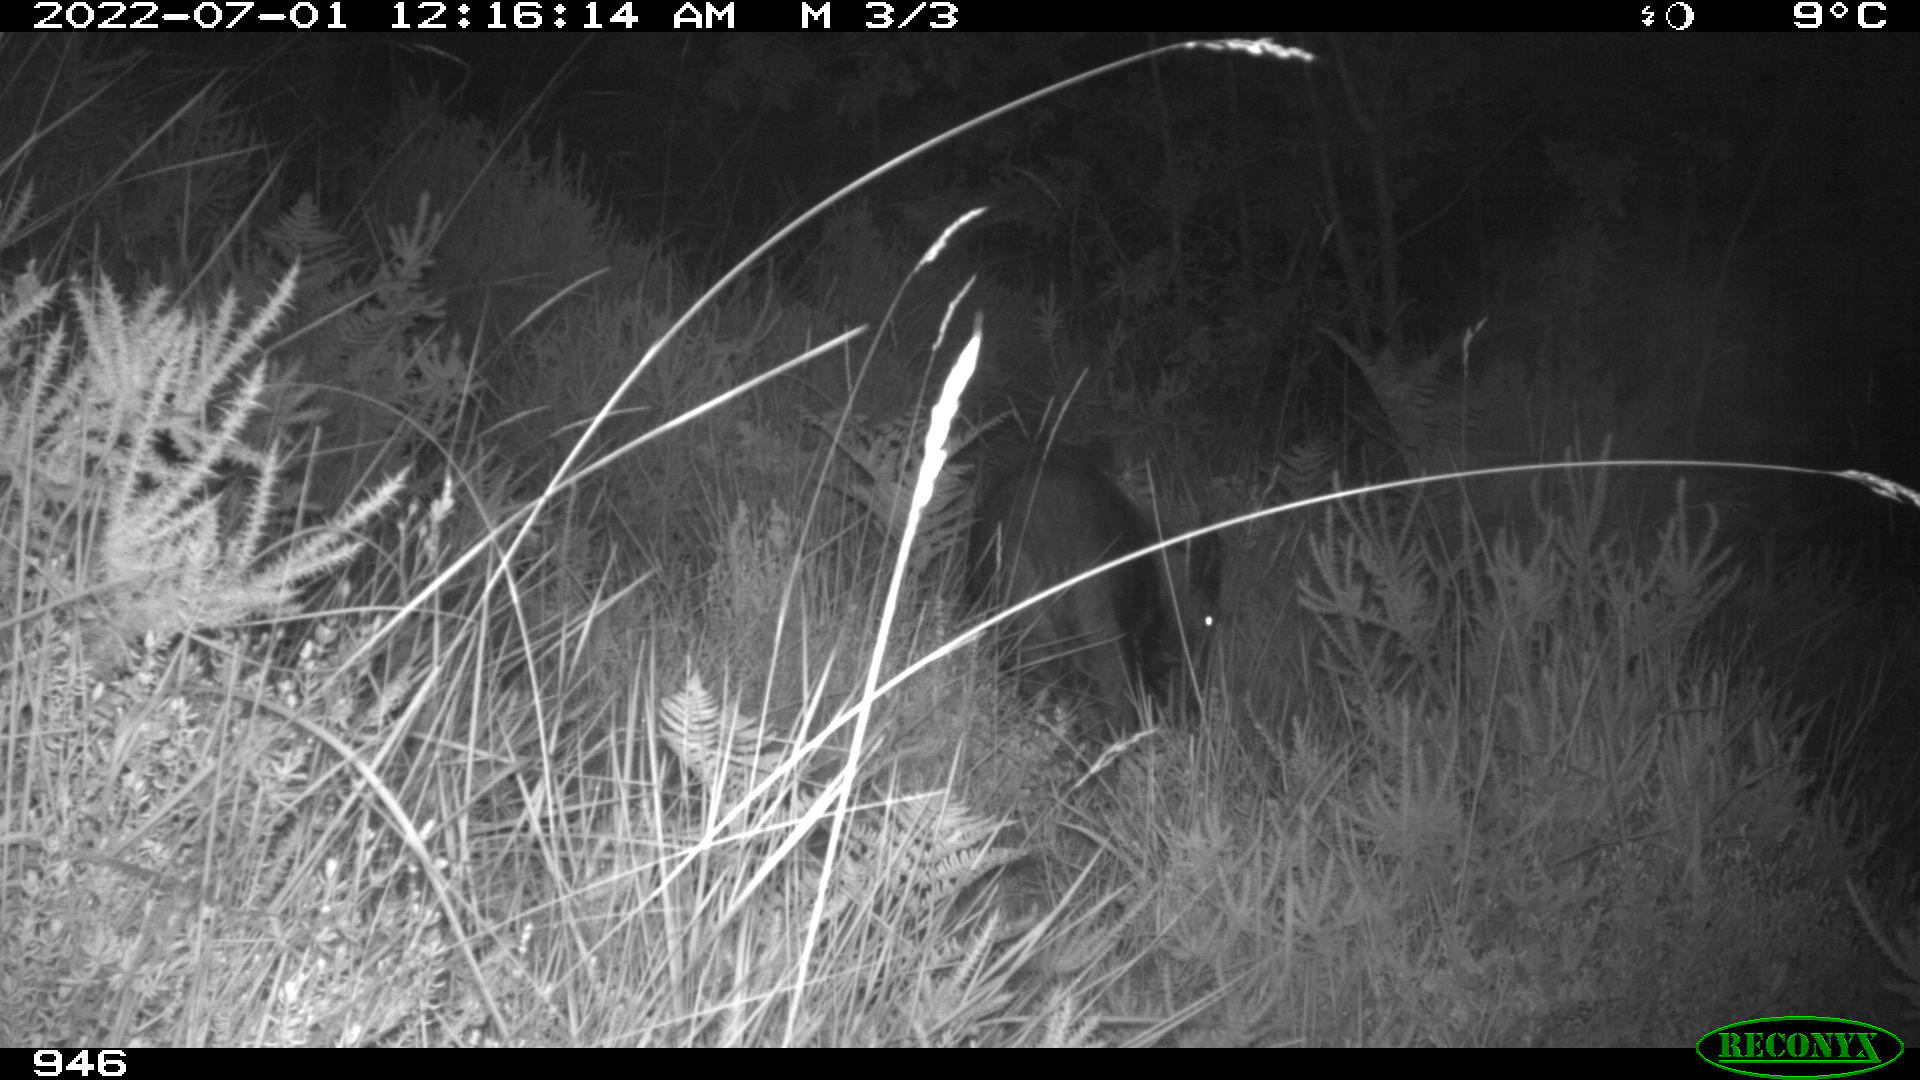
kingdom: Animalia
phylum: Chordata
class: Mammalia
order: Artiodactyla
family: Suidae
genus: Sus
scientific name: Sus scrofa
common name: Wild boar
